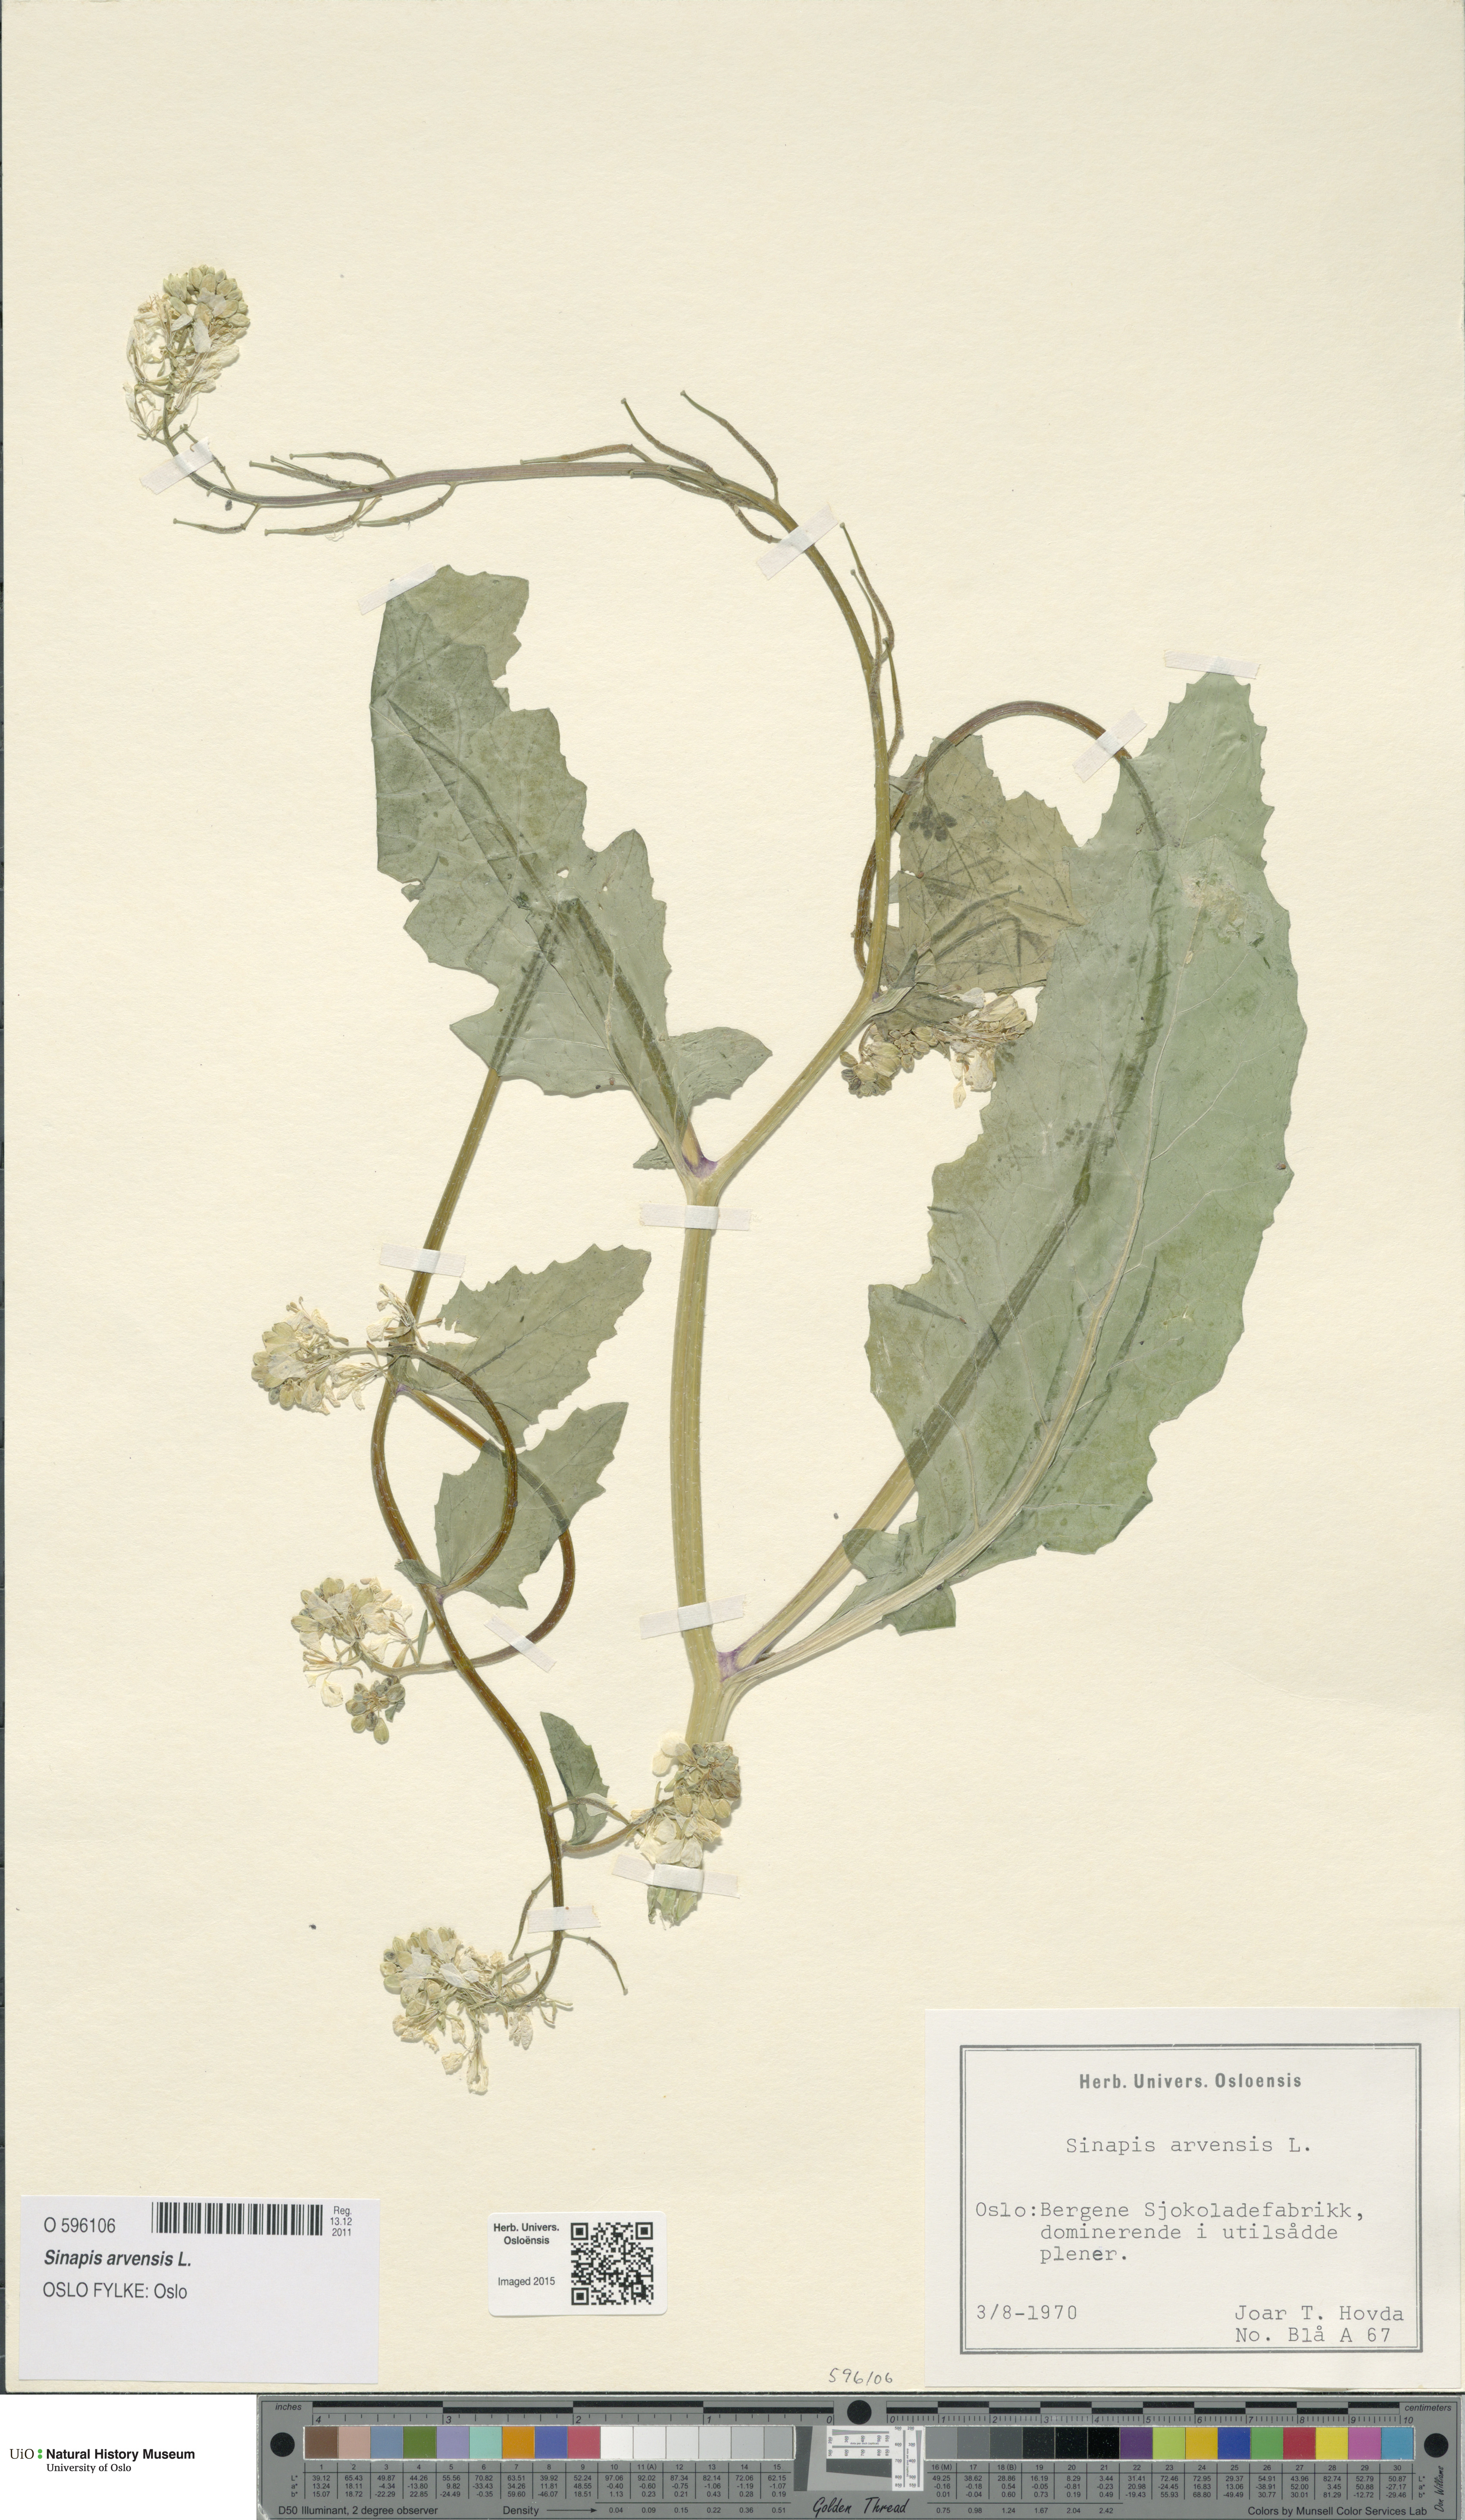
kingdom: Plantae
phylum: Tracheophyta
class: Magnoliopsida
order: Brassicales
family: Brassicaceae
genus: Sinapis
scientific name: Sinapis arvensis
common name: Charlock
